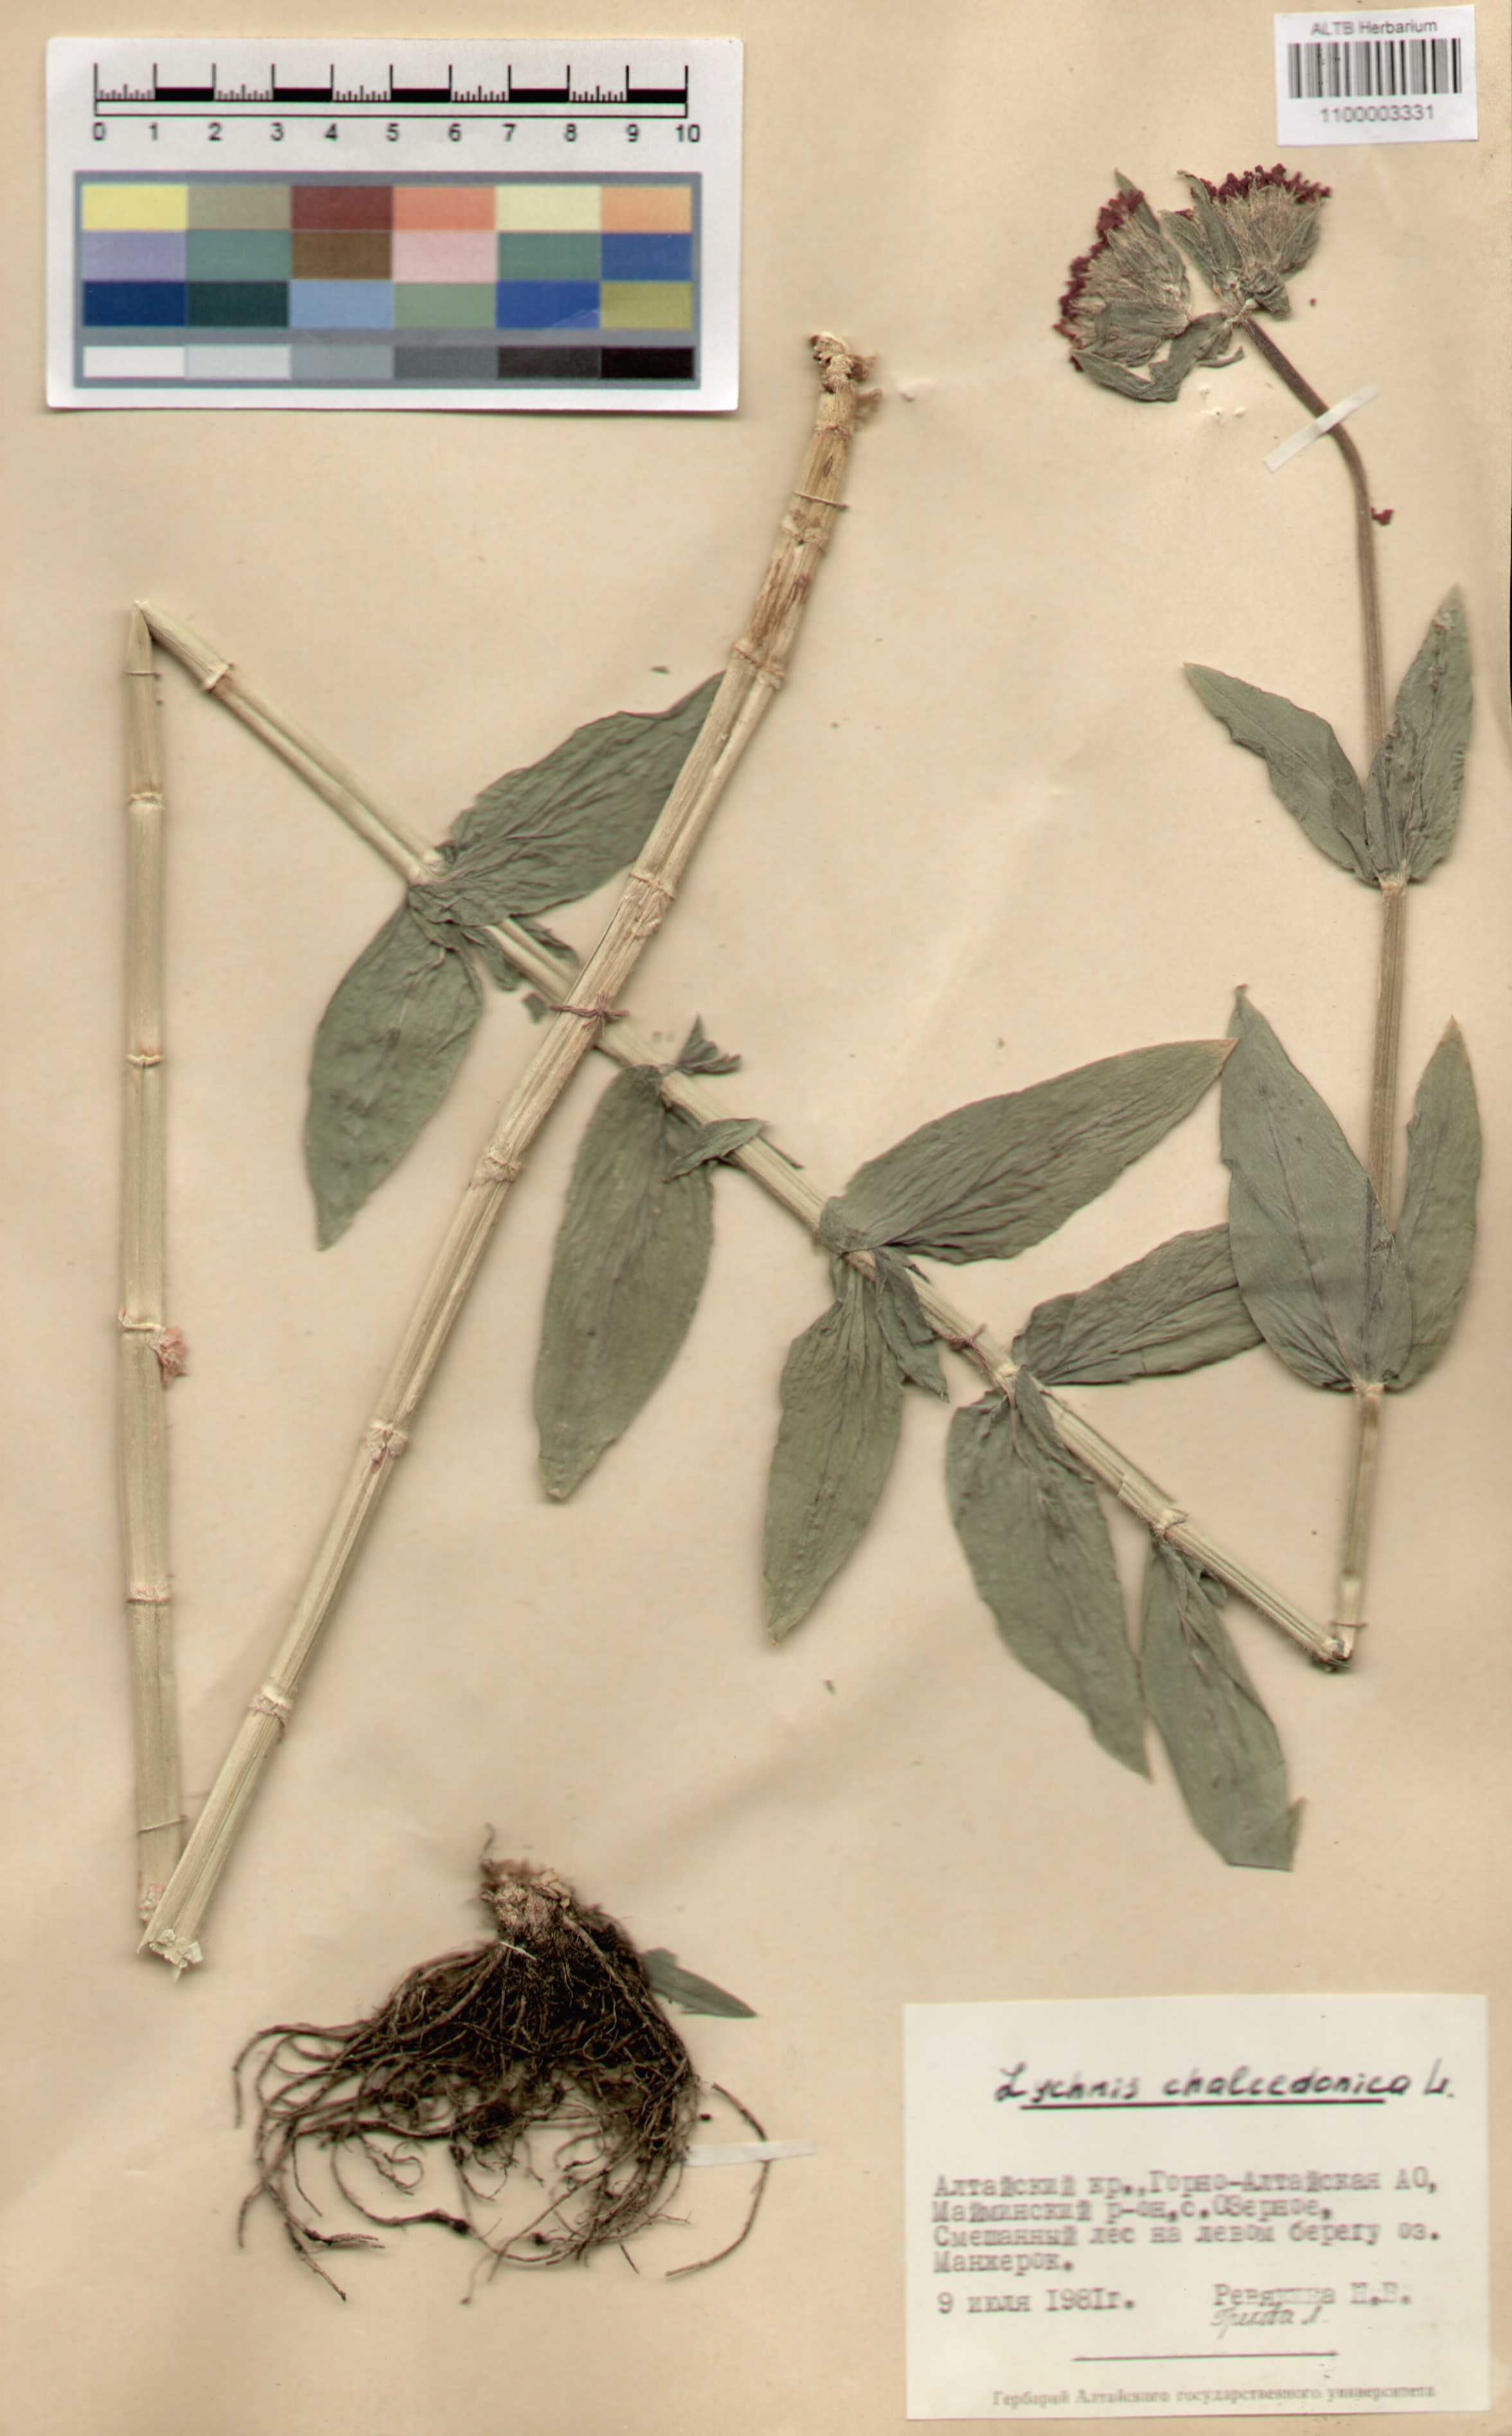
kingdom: Plantae
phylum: Tracheophyta
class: Magnoliopsida
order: Caryophyllales
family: Caryophyllaceae
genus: Silene
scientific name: Silene chalcedonica
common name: Maltese-cross
